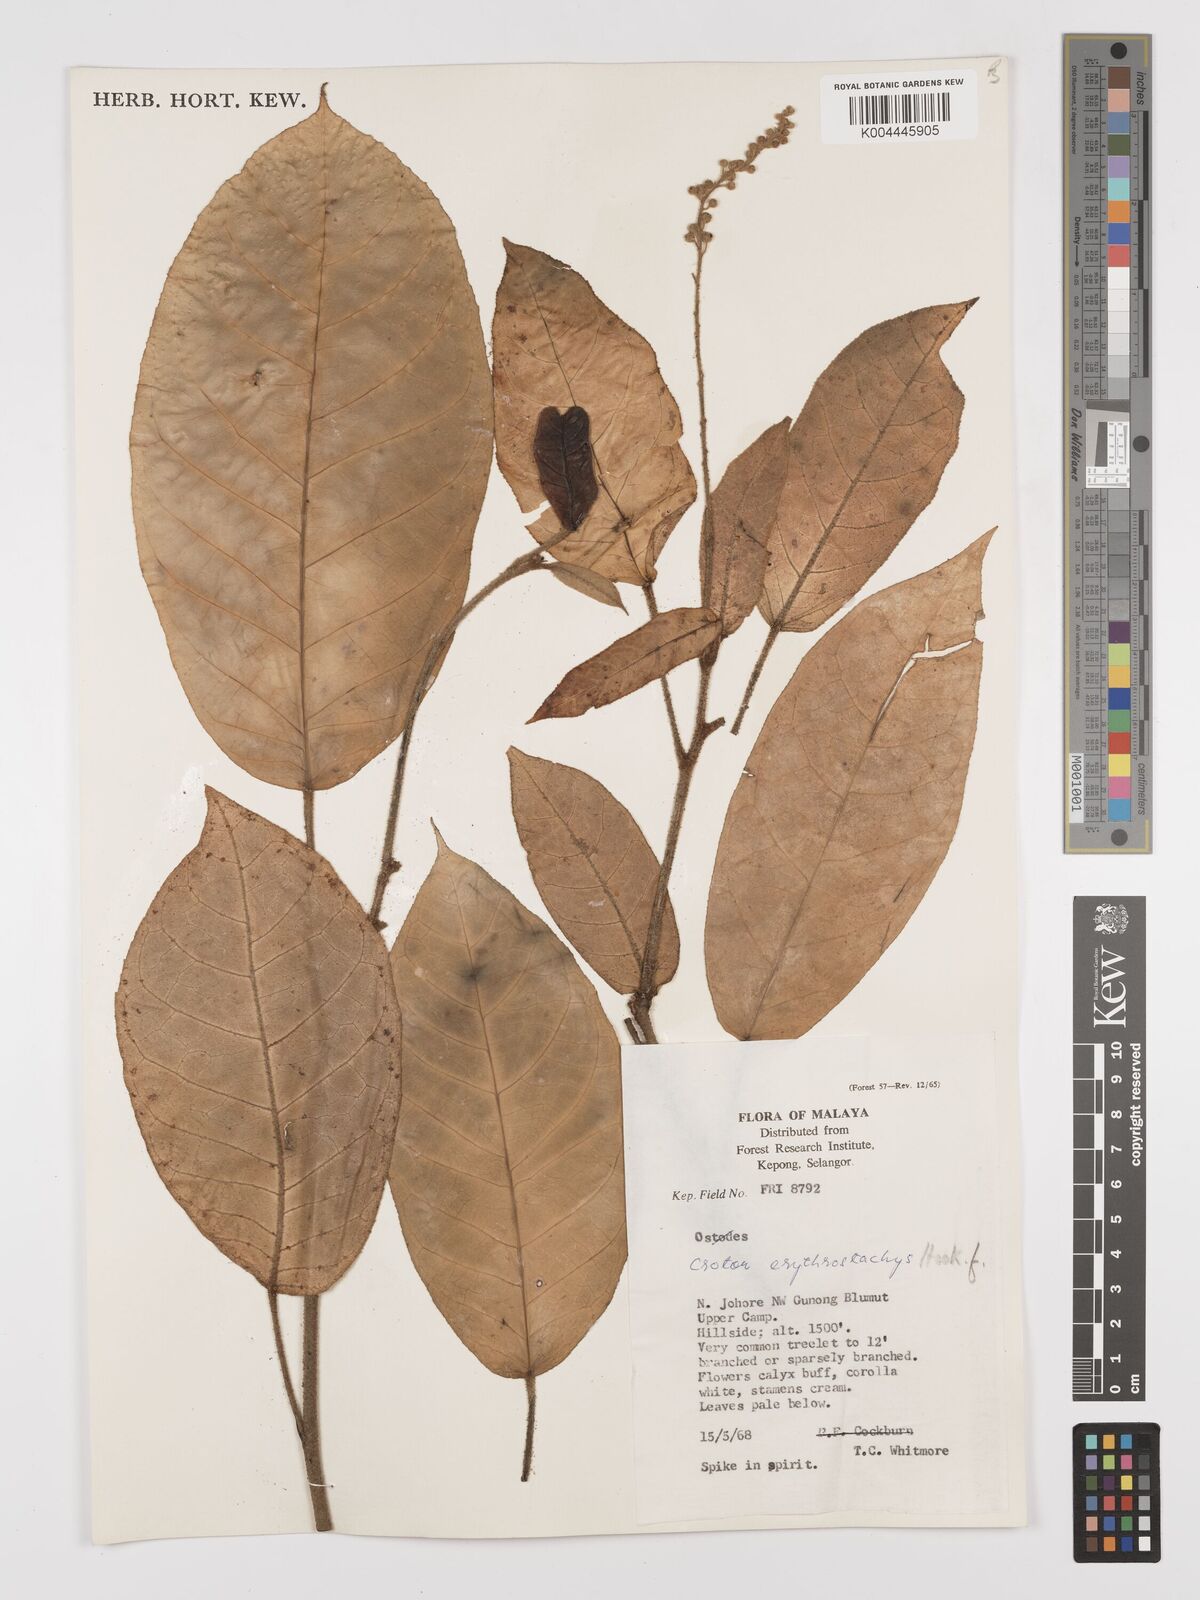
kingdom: Plantae
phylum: Tracheophyta
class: Magnoliopsida
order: Malpighiales
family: Euphorbiaceae
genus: Croton
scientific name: Croton erythrostachys
